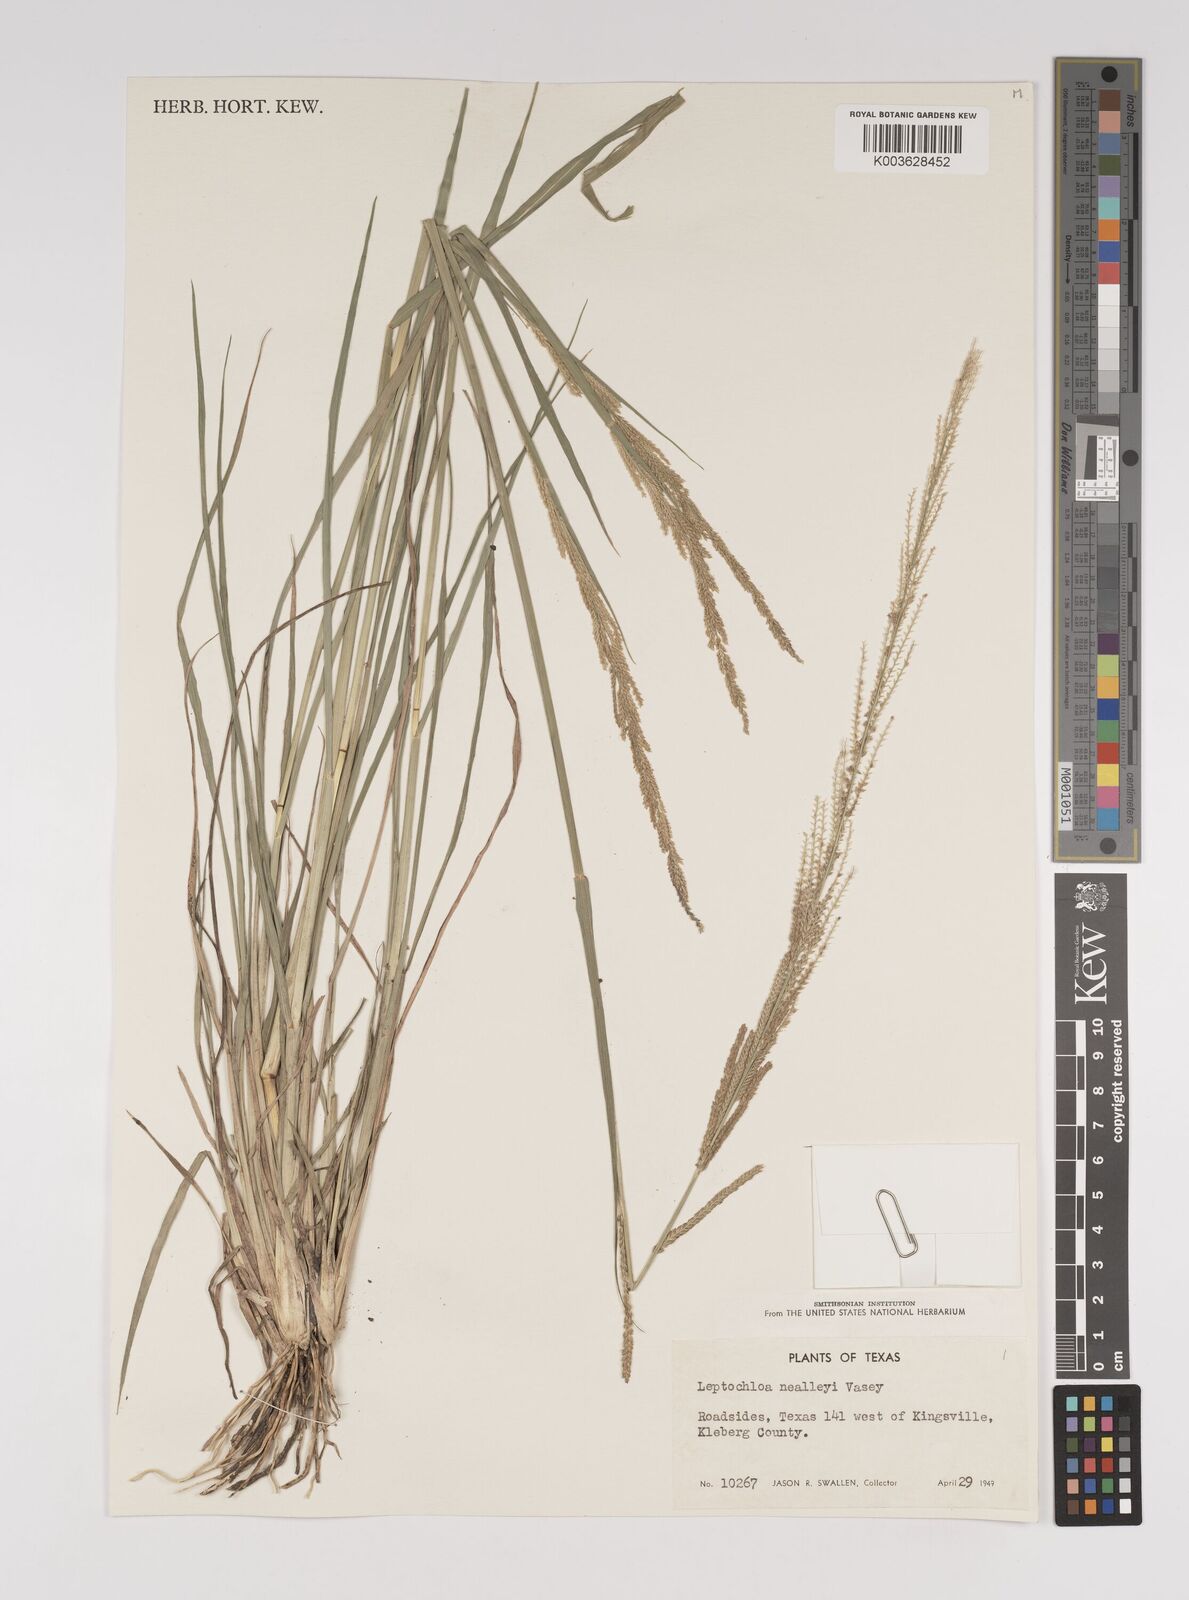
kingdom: Plantae
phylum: Tracheophyta
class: Liliopsida
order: Poales
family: Poaceae
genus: Leptochloa
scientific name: Leptochloa mucronata
